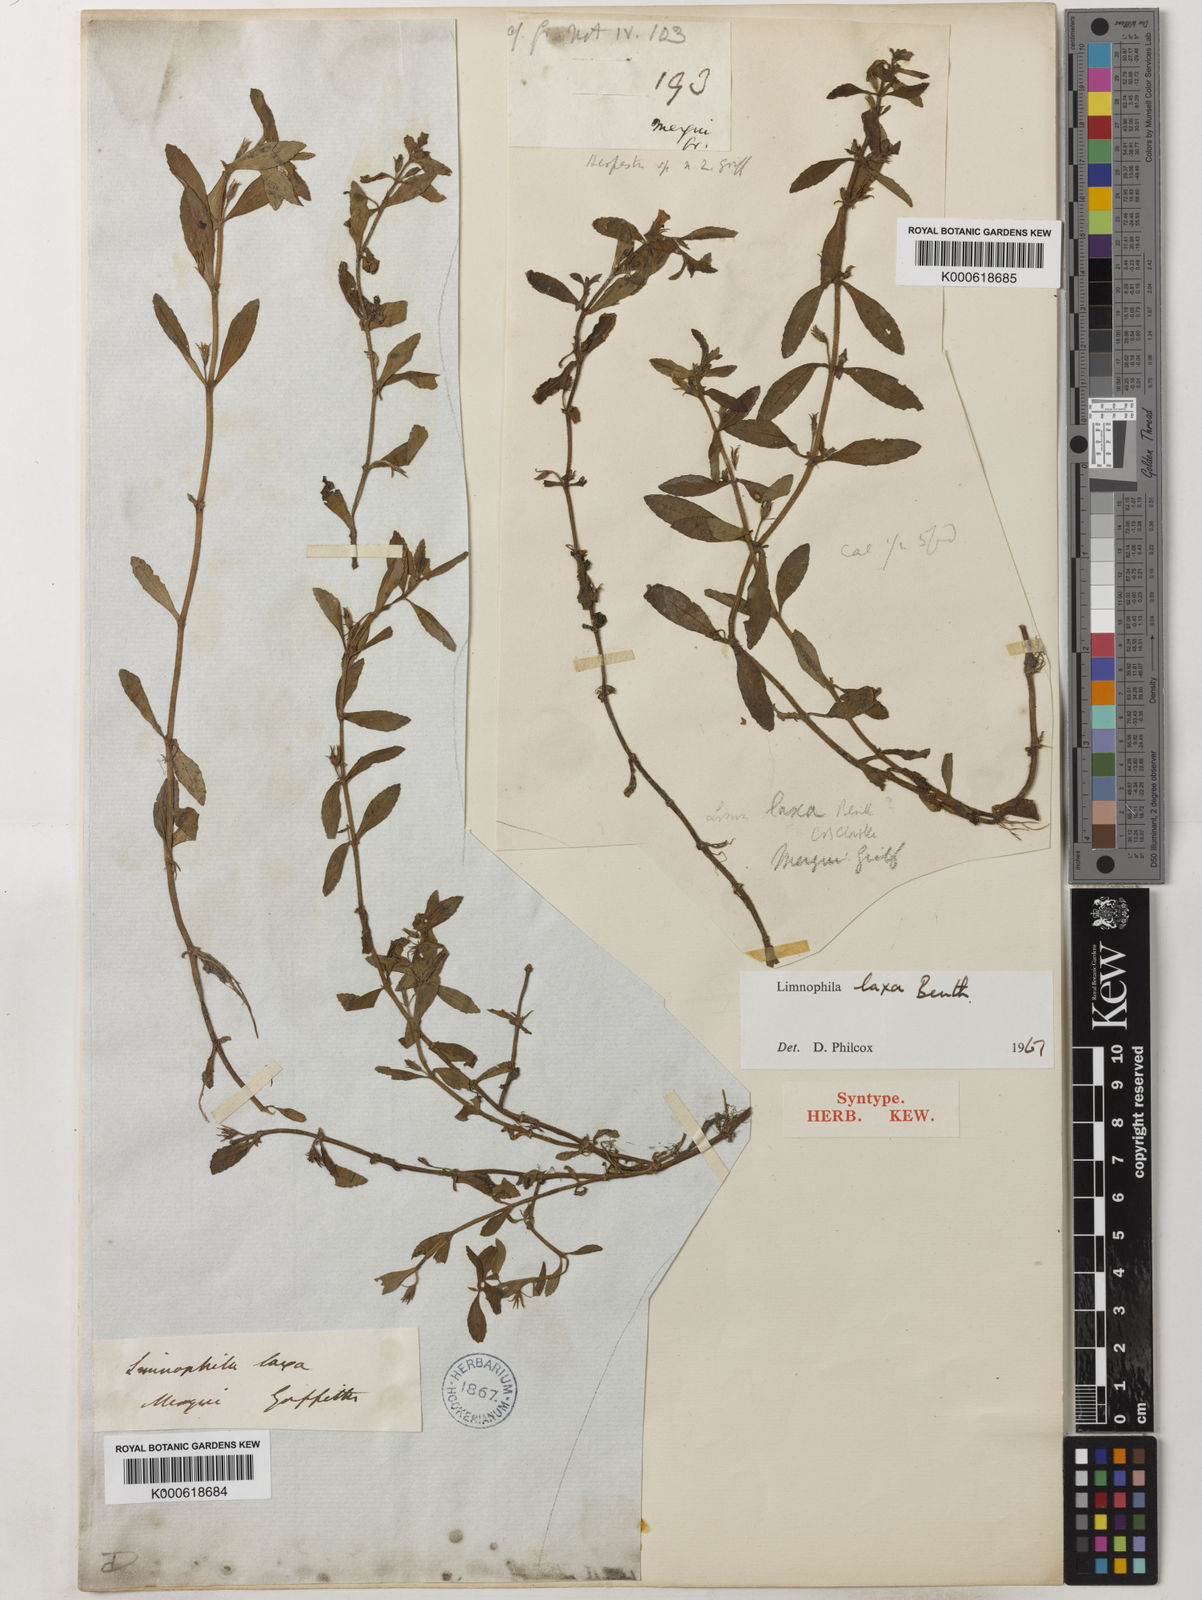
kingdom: Plantae
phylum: Tracheophyta
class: Magnoliopsida
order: Lamiales
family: Plantaginaceae
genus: Limnophila
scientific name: Limnophila laxa
